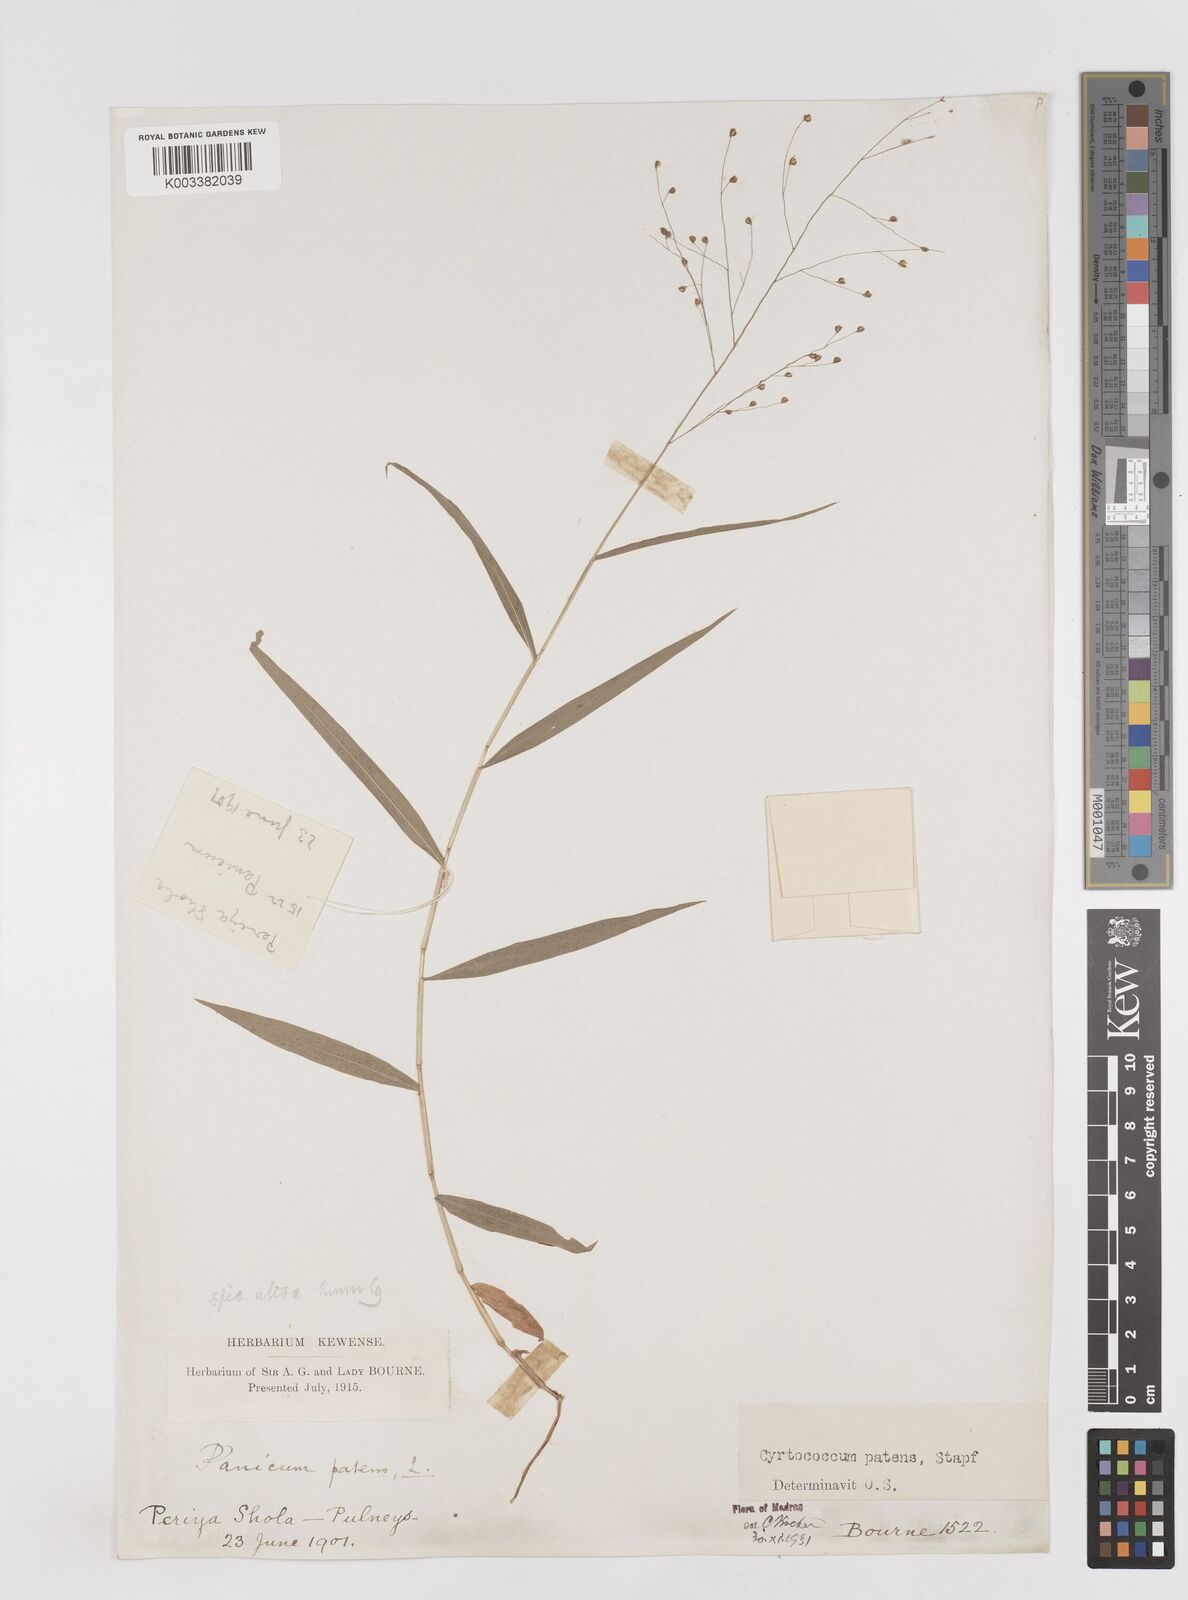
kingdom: Plantae
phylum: Tracheophyta
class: Liliopsida
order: Poales
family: Poaceae
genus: Cyrtococcum
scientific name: Cyrtococcum deccanense
